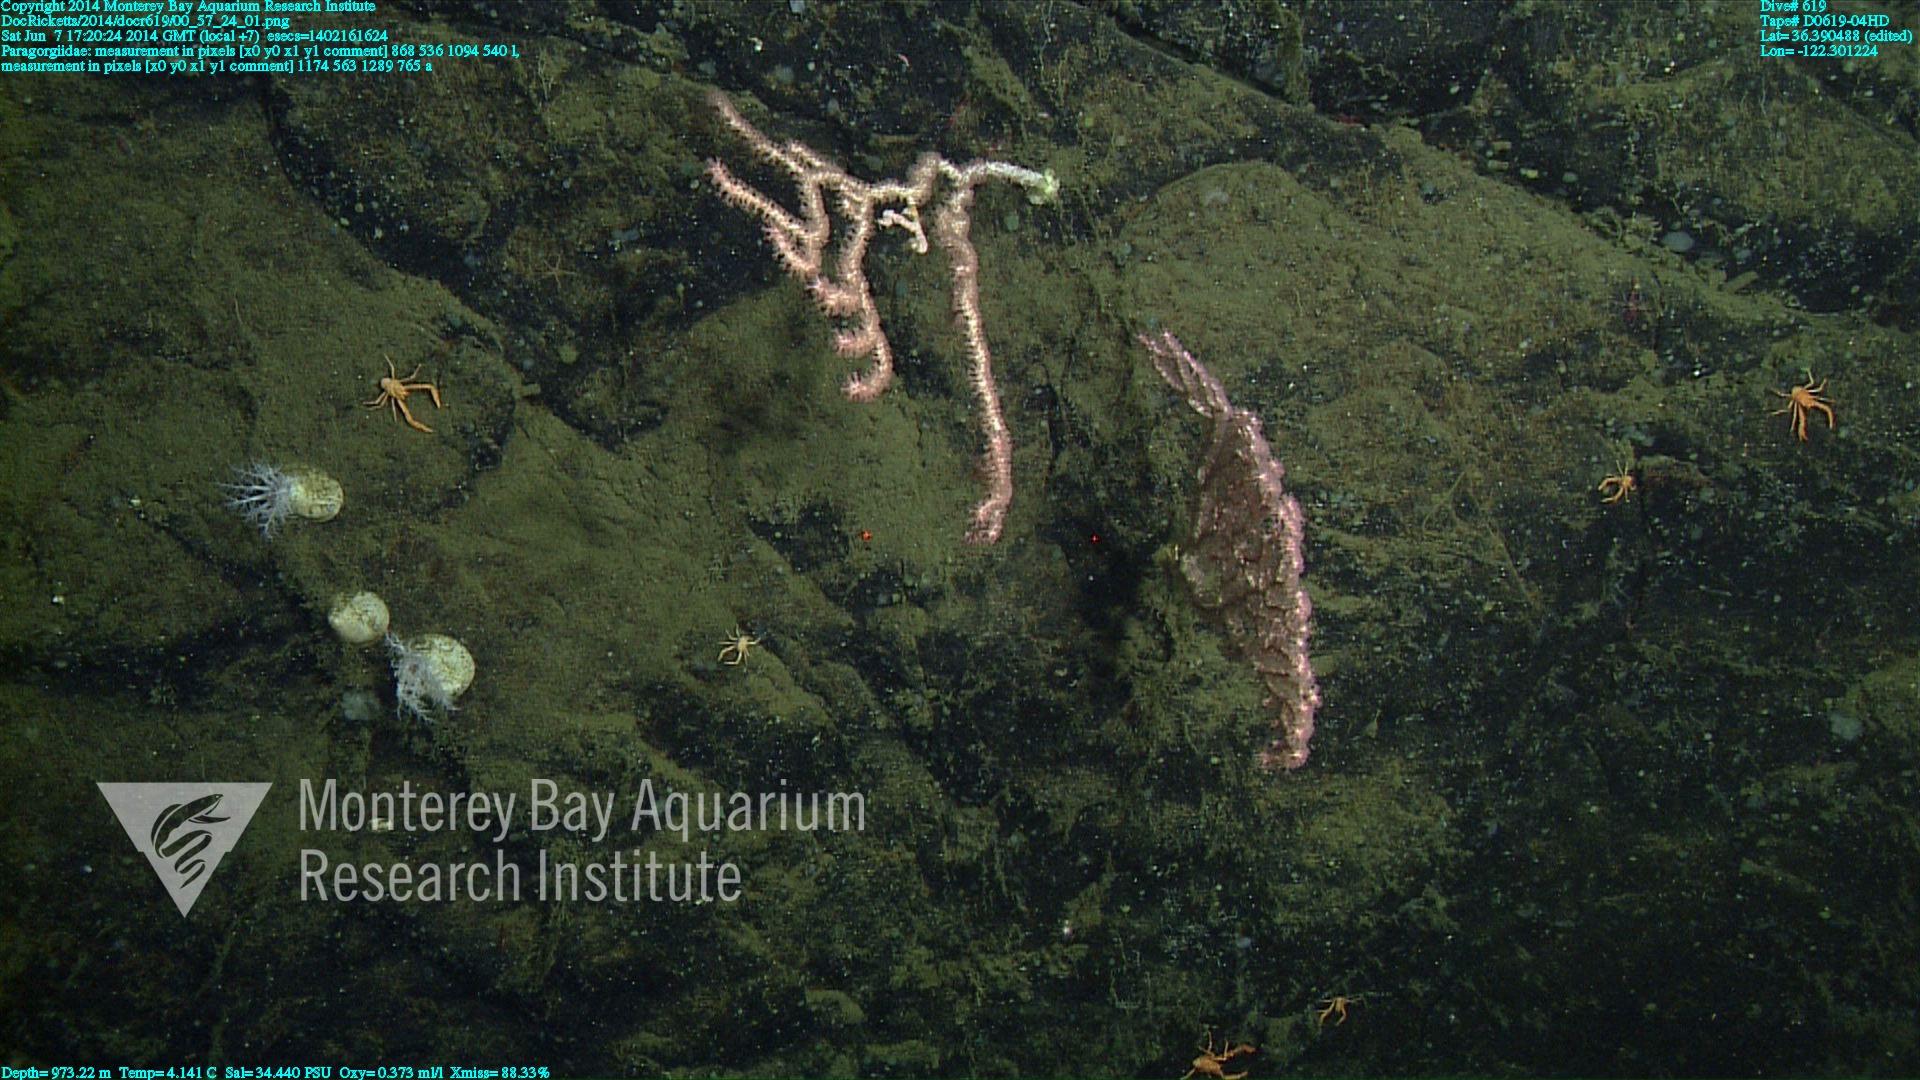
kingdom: Animalia
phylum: Cnidaria
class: Anthozoa
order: Scleralcyonacea
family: Coralliidae
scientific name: Coralliidae
